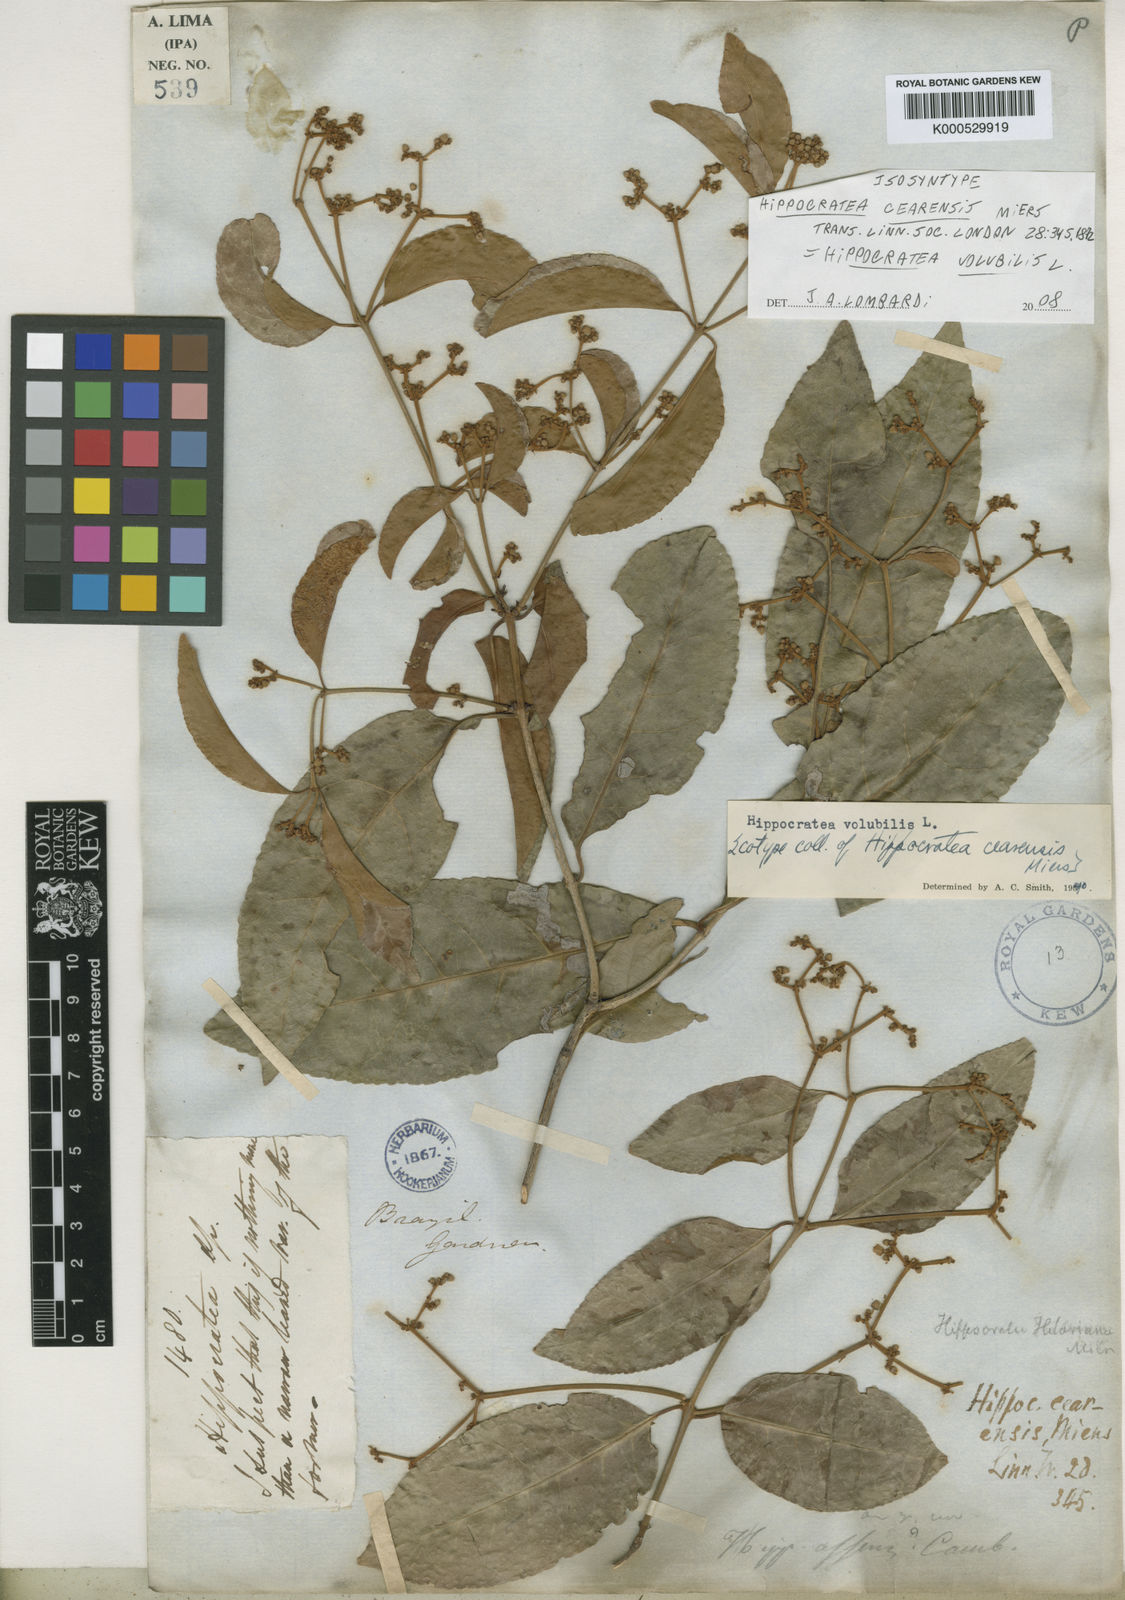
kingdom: Plantae
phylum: Tracheophyta
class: Magnoliopsida
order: Celastrales
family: Celastraceae
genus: Hippocratea
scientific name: Hippocratea volubilis
